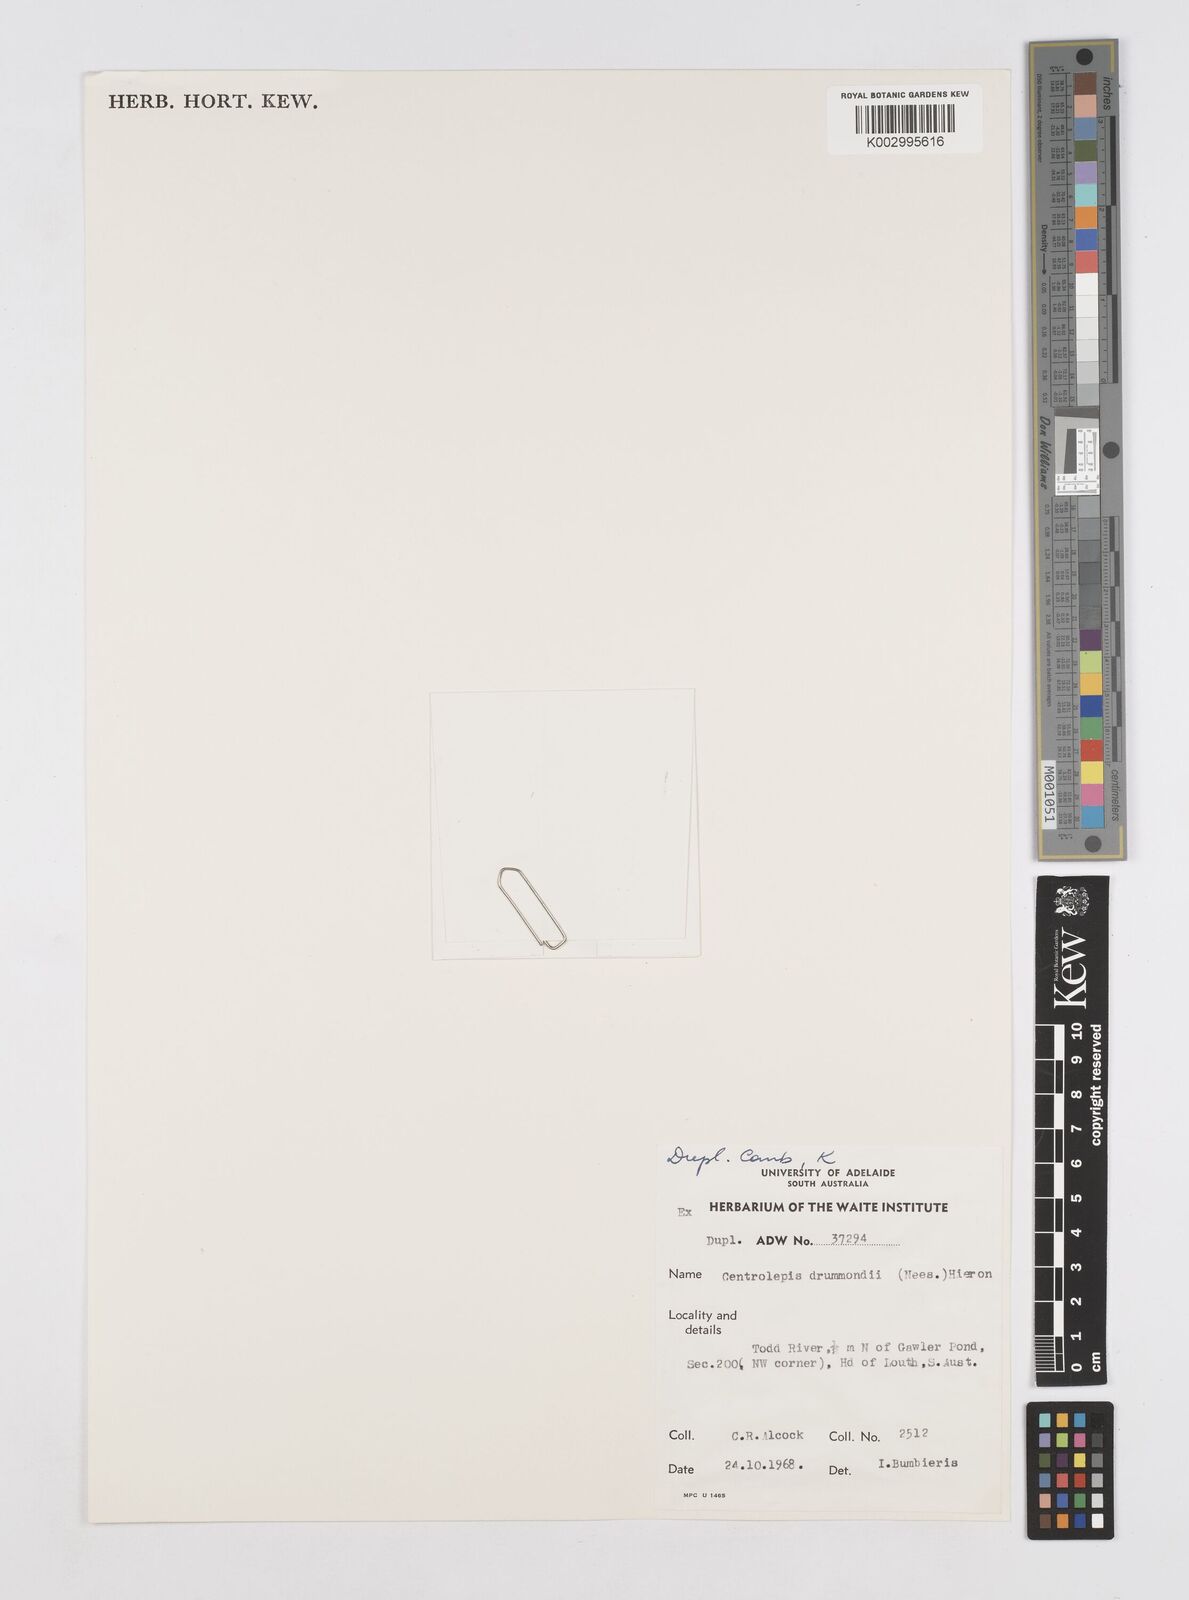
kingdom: Plantae
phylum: Tracheophyta
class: Liliopsida
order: Poales
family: Restionaceae
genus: Centrolepis
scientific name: Centrolepis drummondiana
